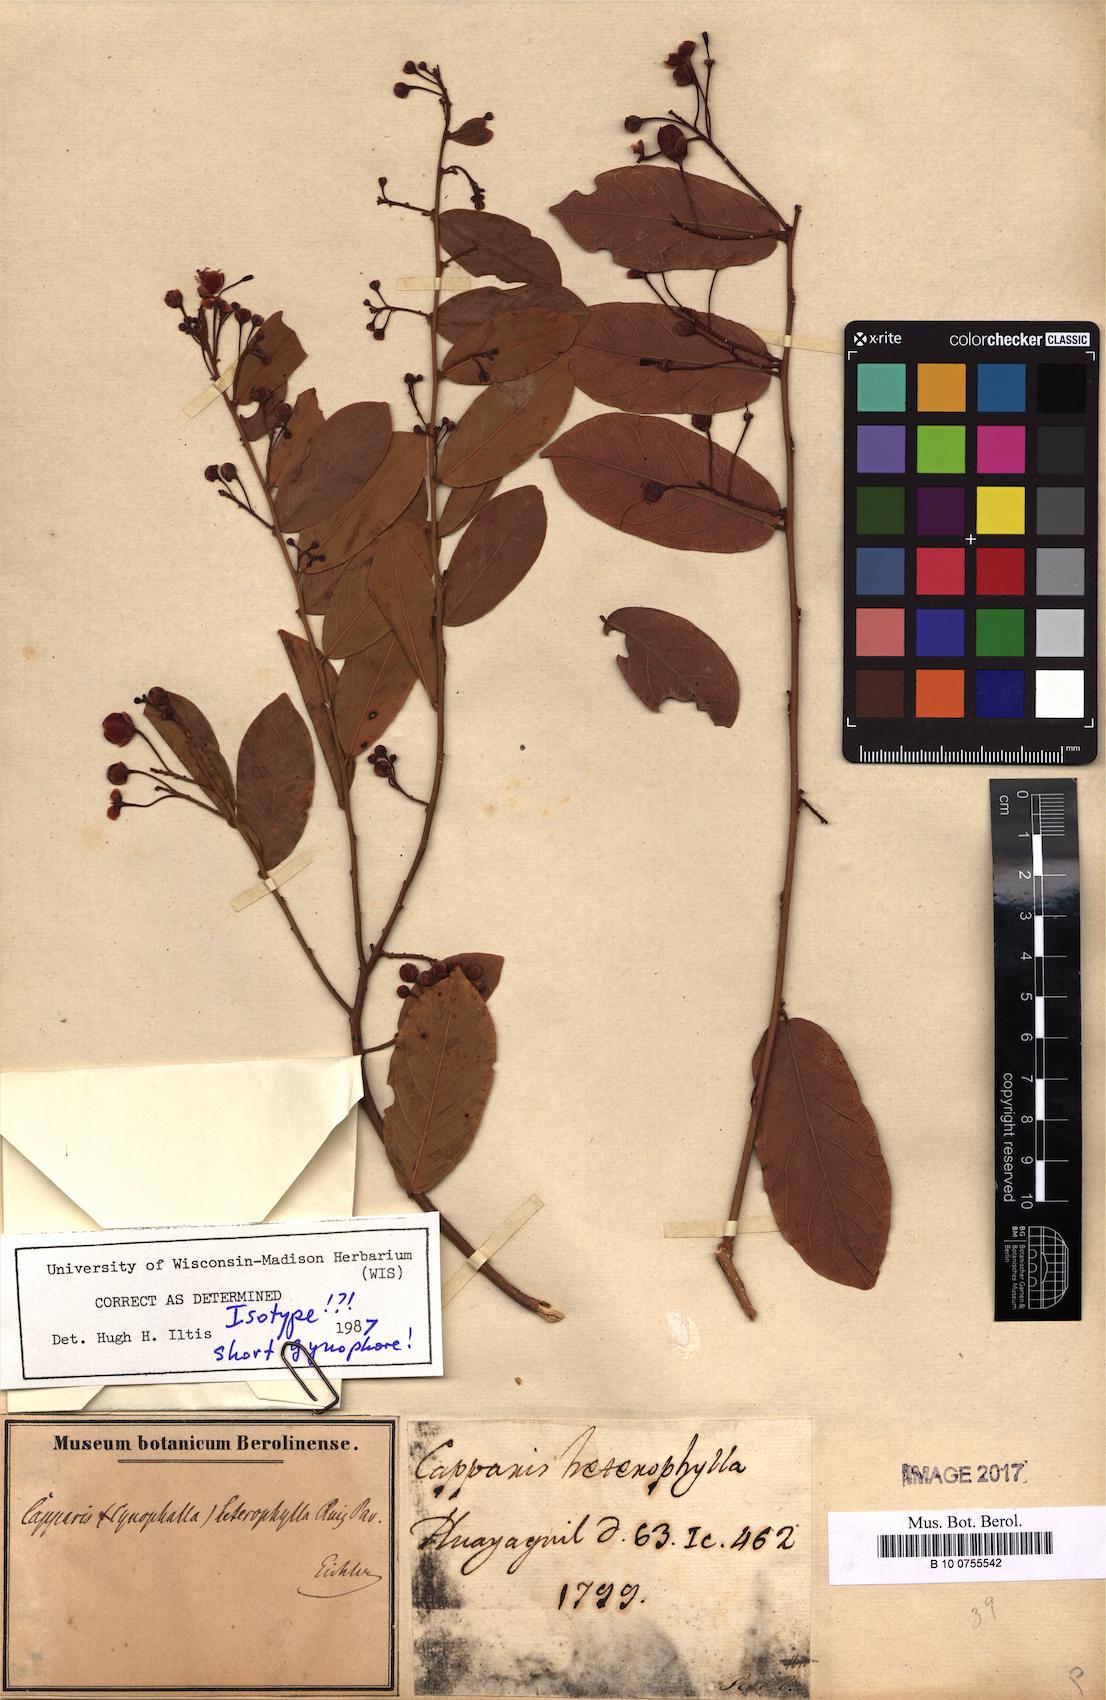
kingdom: Plantae
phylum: Tracheophyta
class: Magnoliopsida
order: Brassicales
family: Capparaceae
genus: Cynophalla
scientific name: Cynophalla heterophylla
